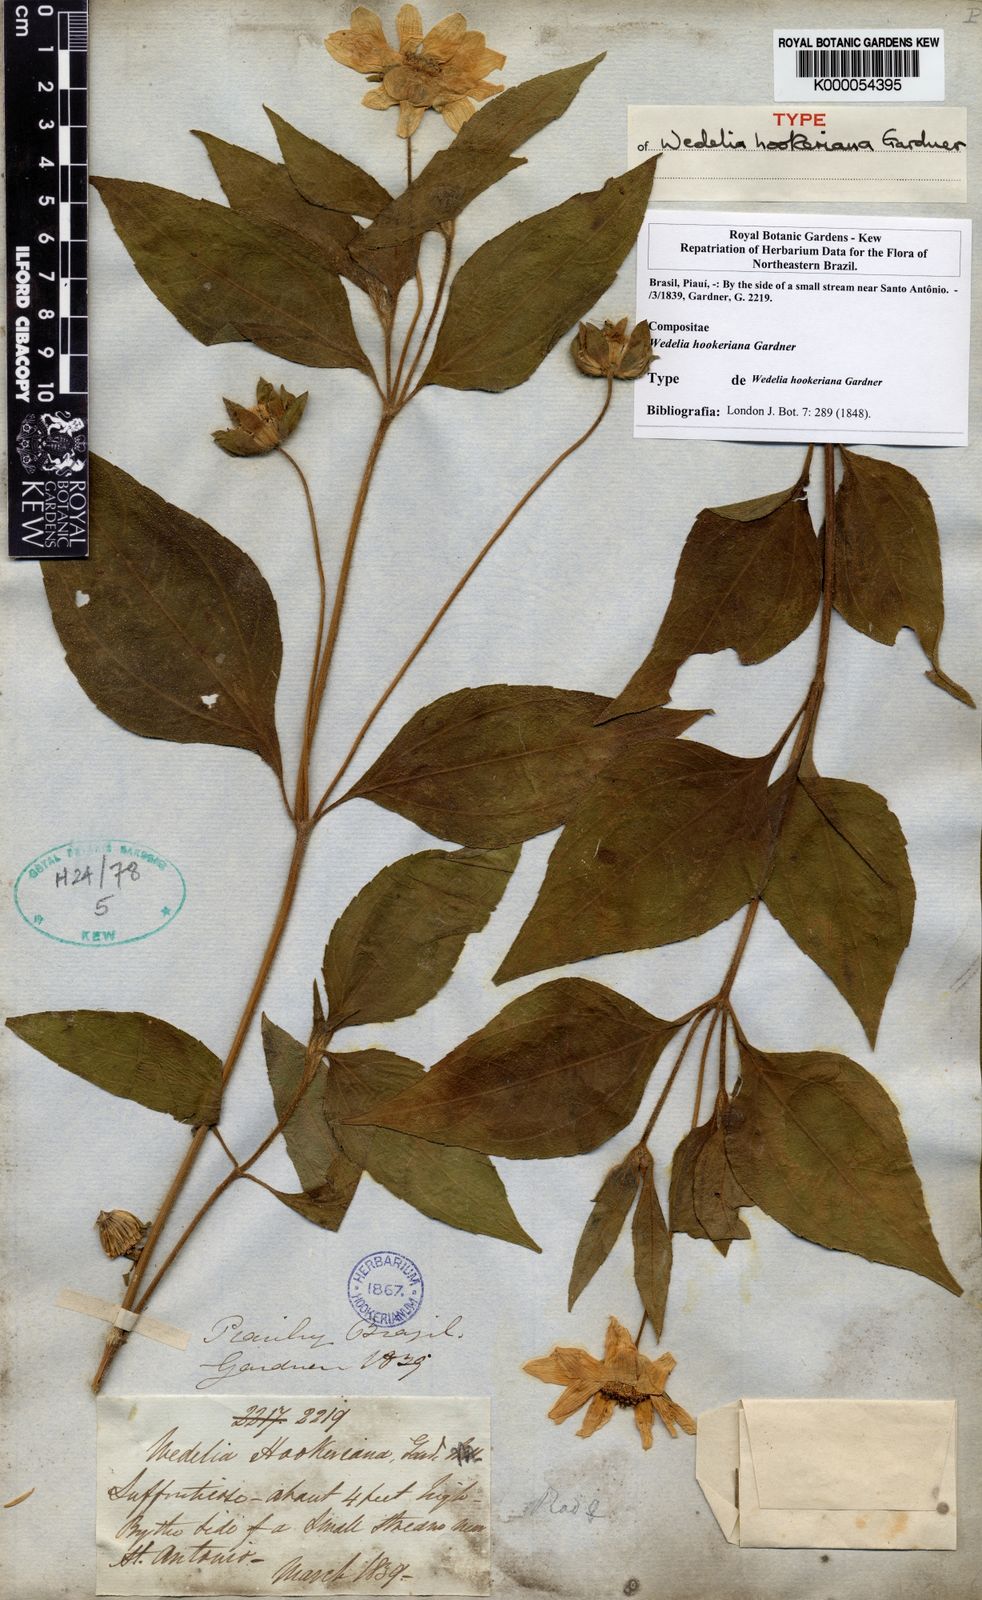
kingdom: Plantae
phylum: Tracheophyta
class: Magnoliopsida
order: Asterales
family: Asteraceae
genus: Aspilia
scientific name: Aspilia
